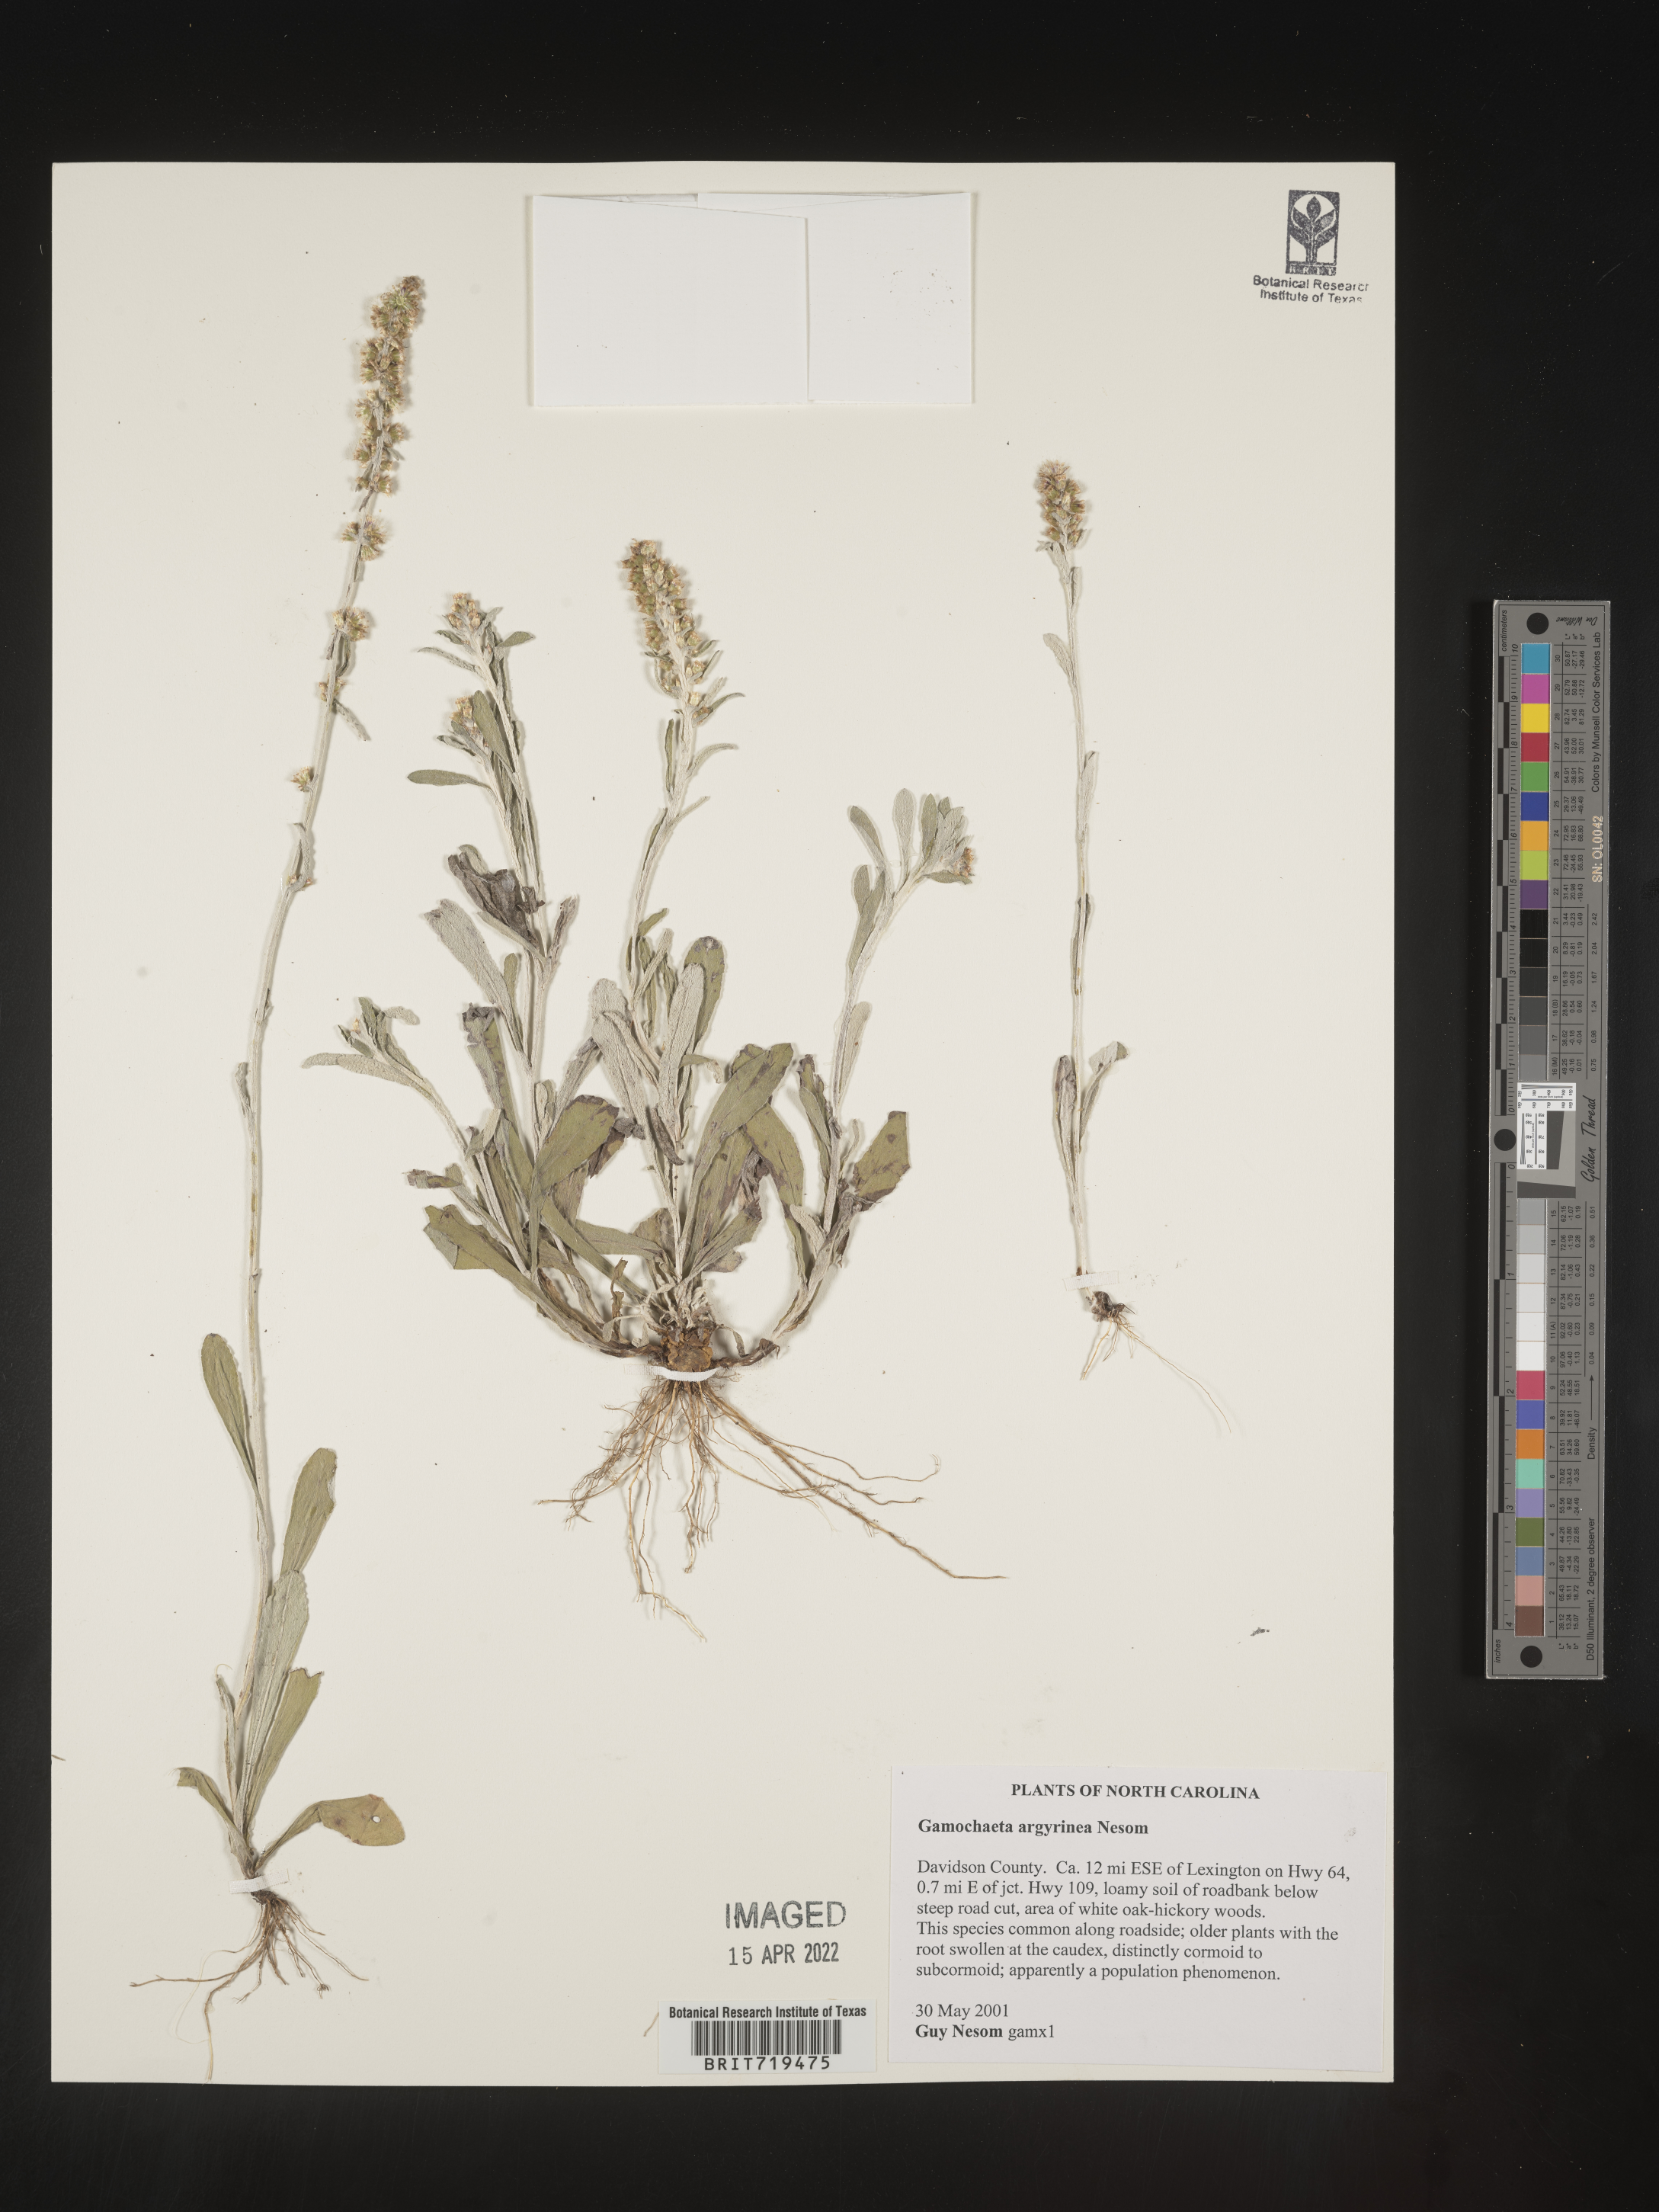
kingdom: Plantae
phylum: Tracheophyta
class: Magnoliopsida
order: Asterales
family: Asteraceae
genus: Gamochaeta
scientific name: Gamochaeta argyrinea
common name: Silvery cudweed
